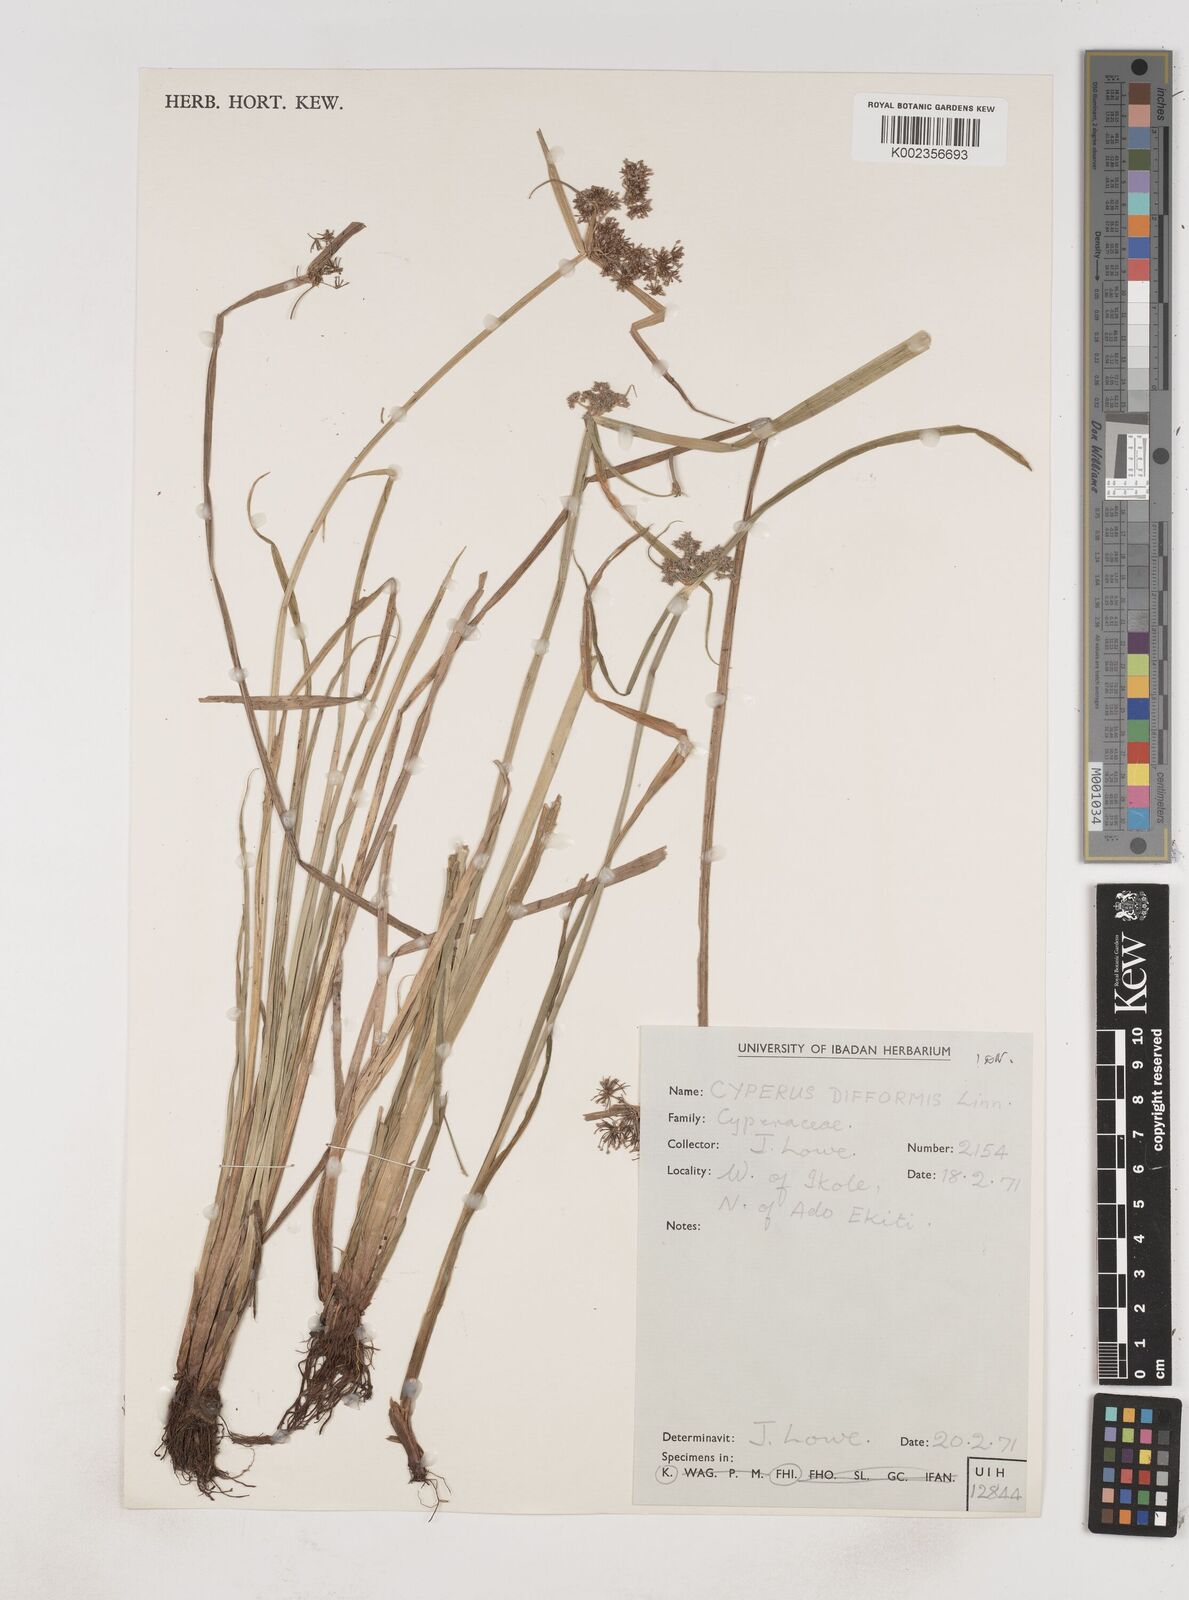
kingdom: Plantae
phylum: Tracheophyta
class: Liliopsida
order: Poales
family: Cyperaceae
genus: Cyperus
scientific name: Cyperus difformis
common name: Variable flatsedge
